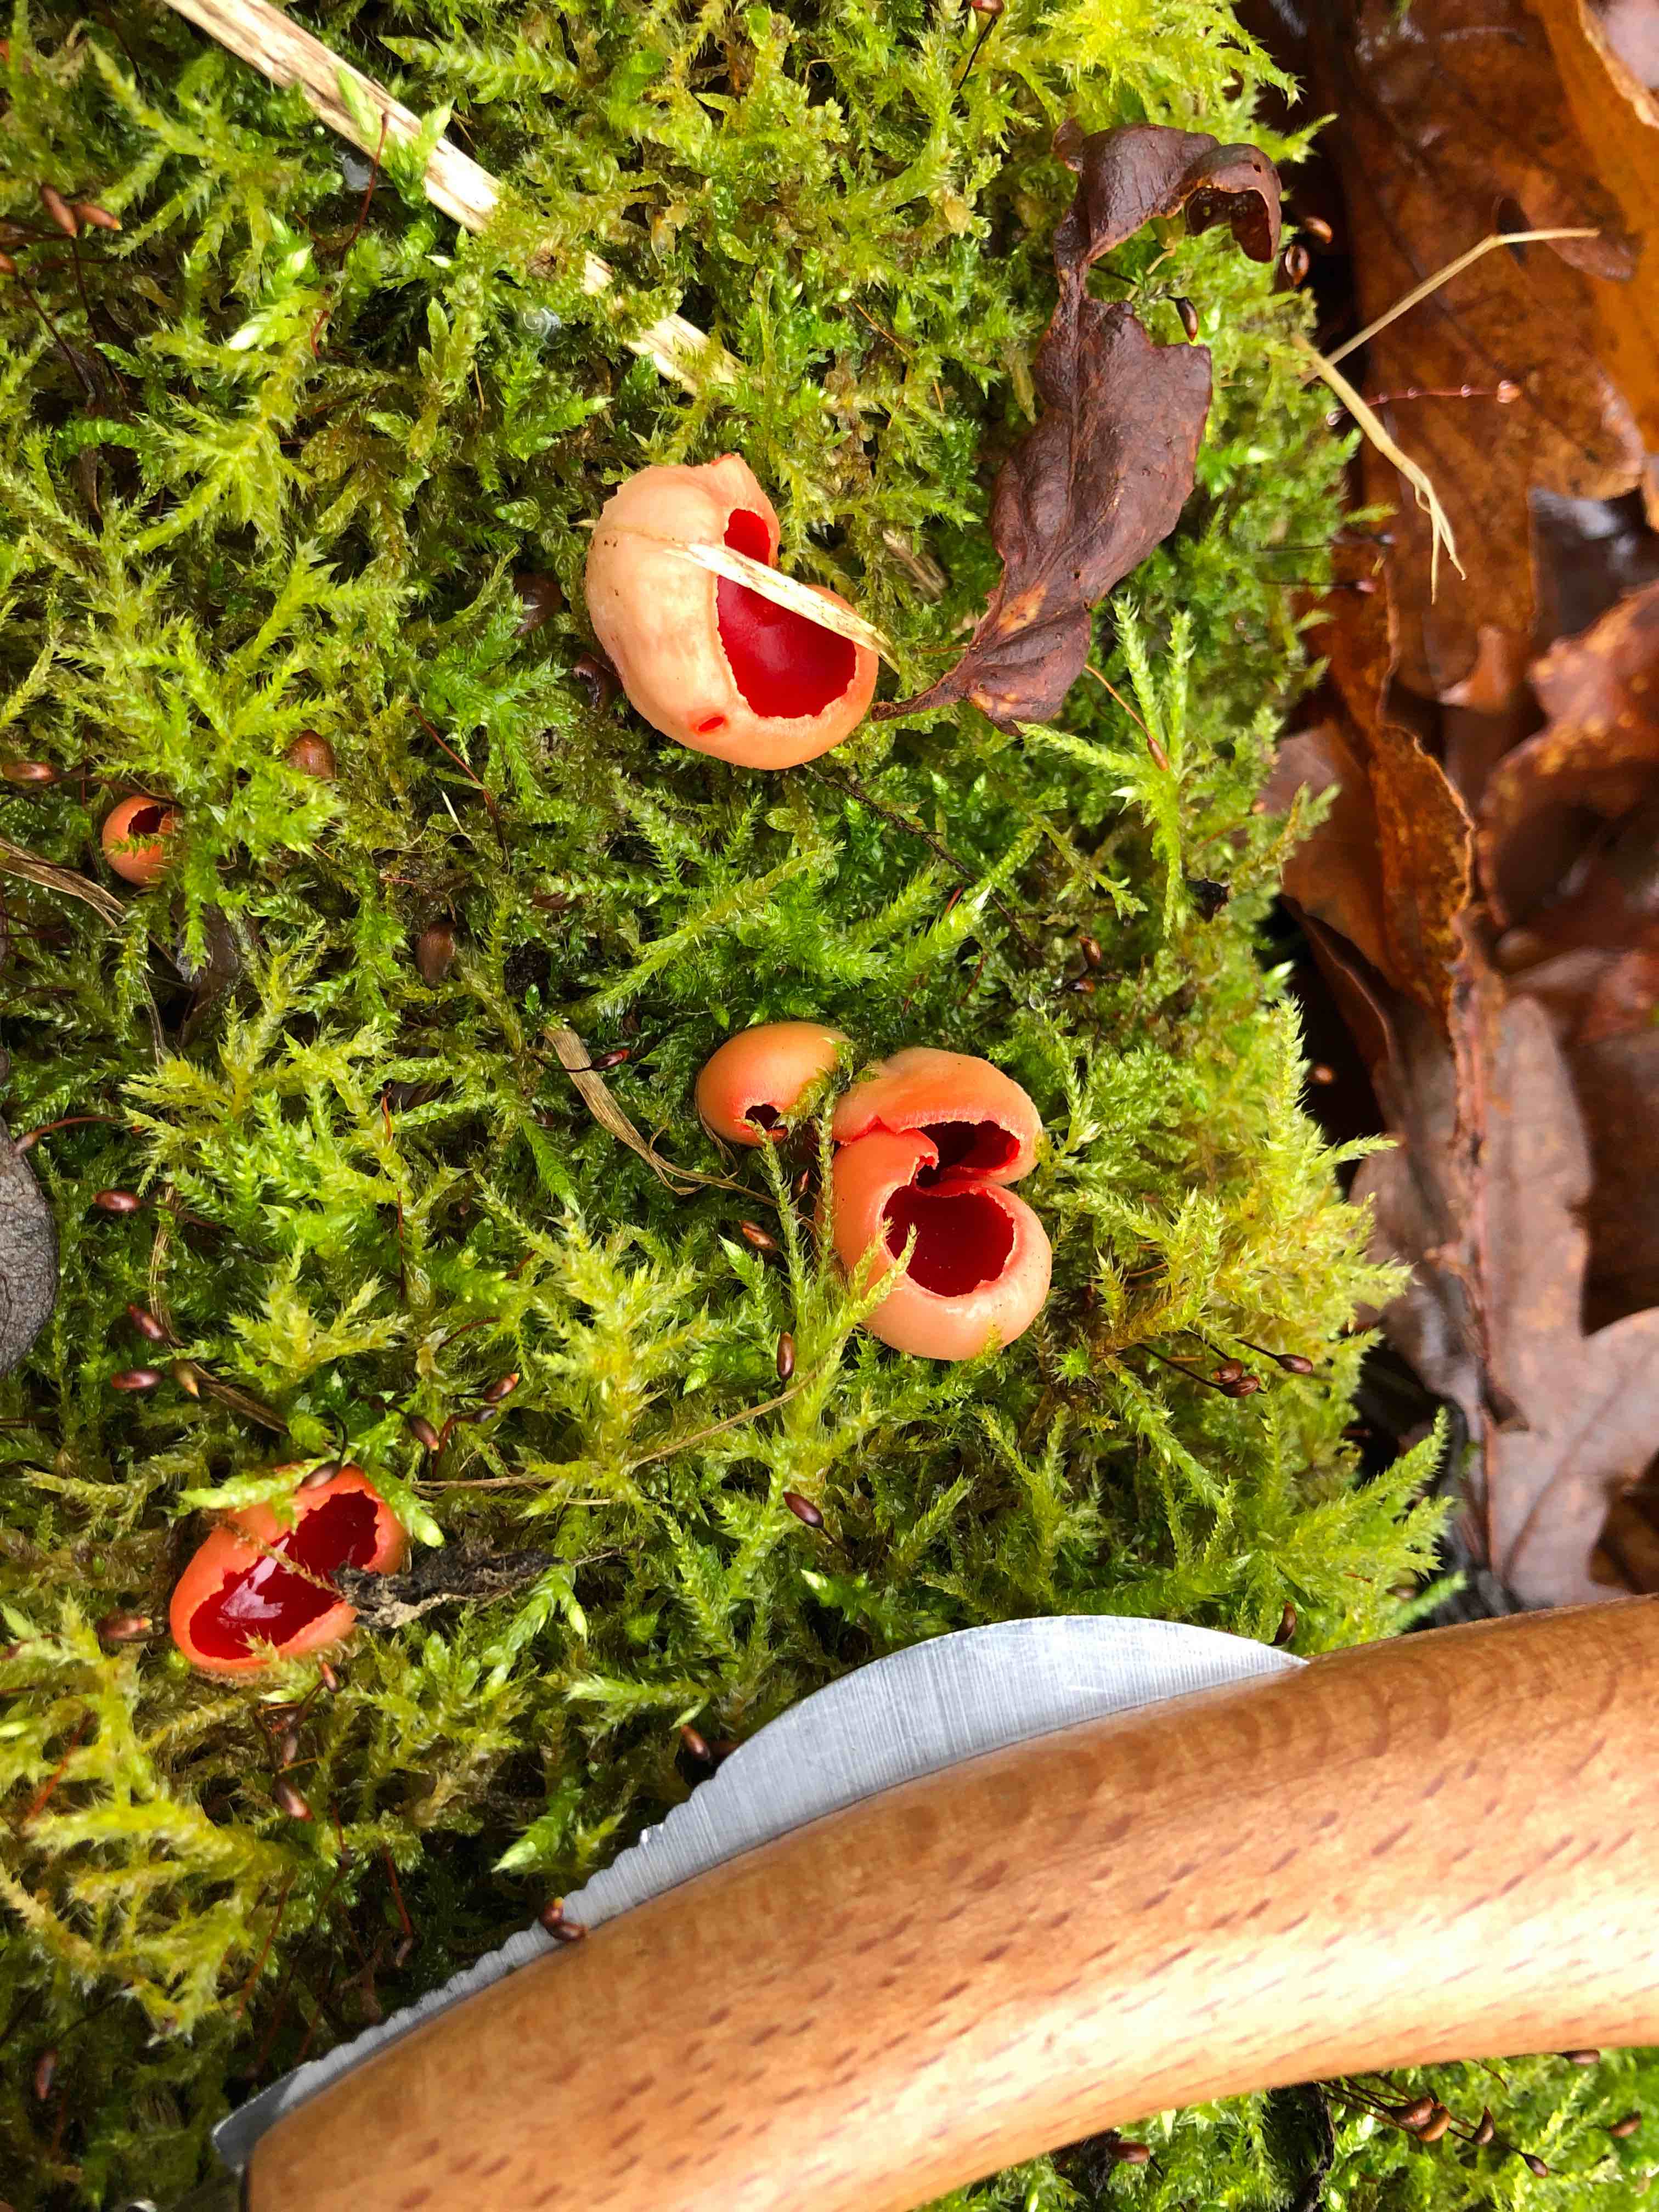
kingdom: Fungi
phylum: Ascomycota
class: Pezizomycetes
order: Pezizales
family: Sarcoscyphaceae
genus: Sarcoscypha
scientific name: Sarcoscypha austriaca
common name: krølhåret pragtbæger
